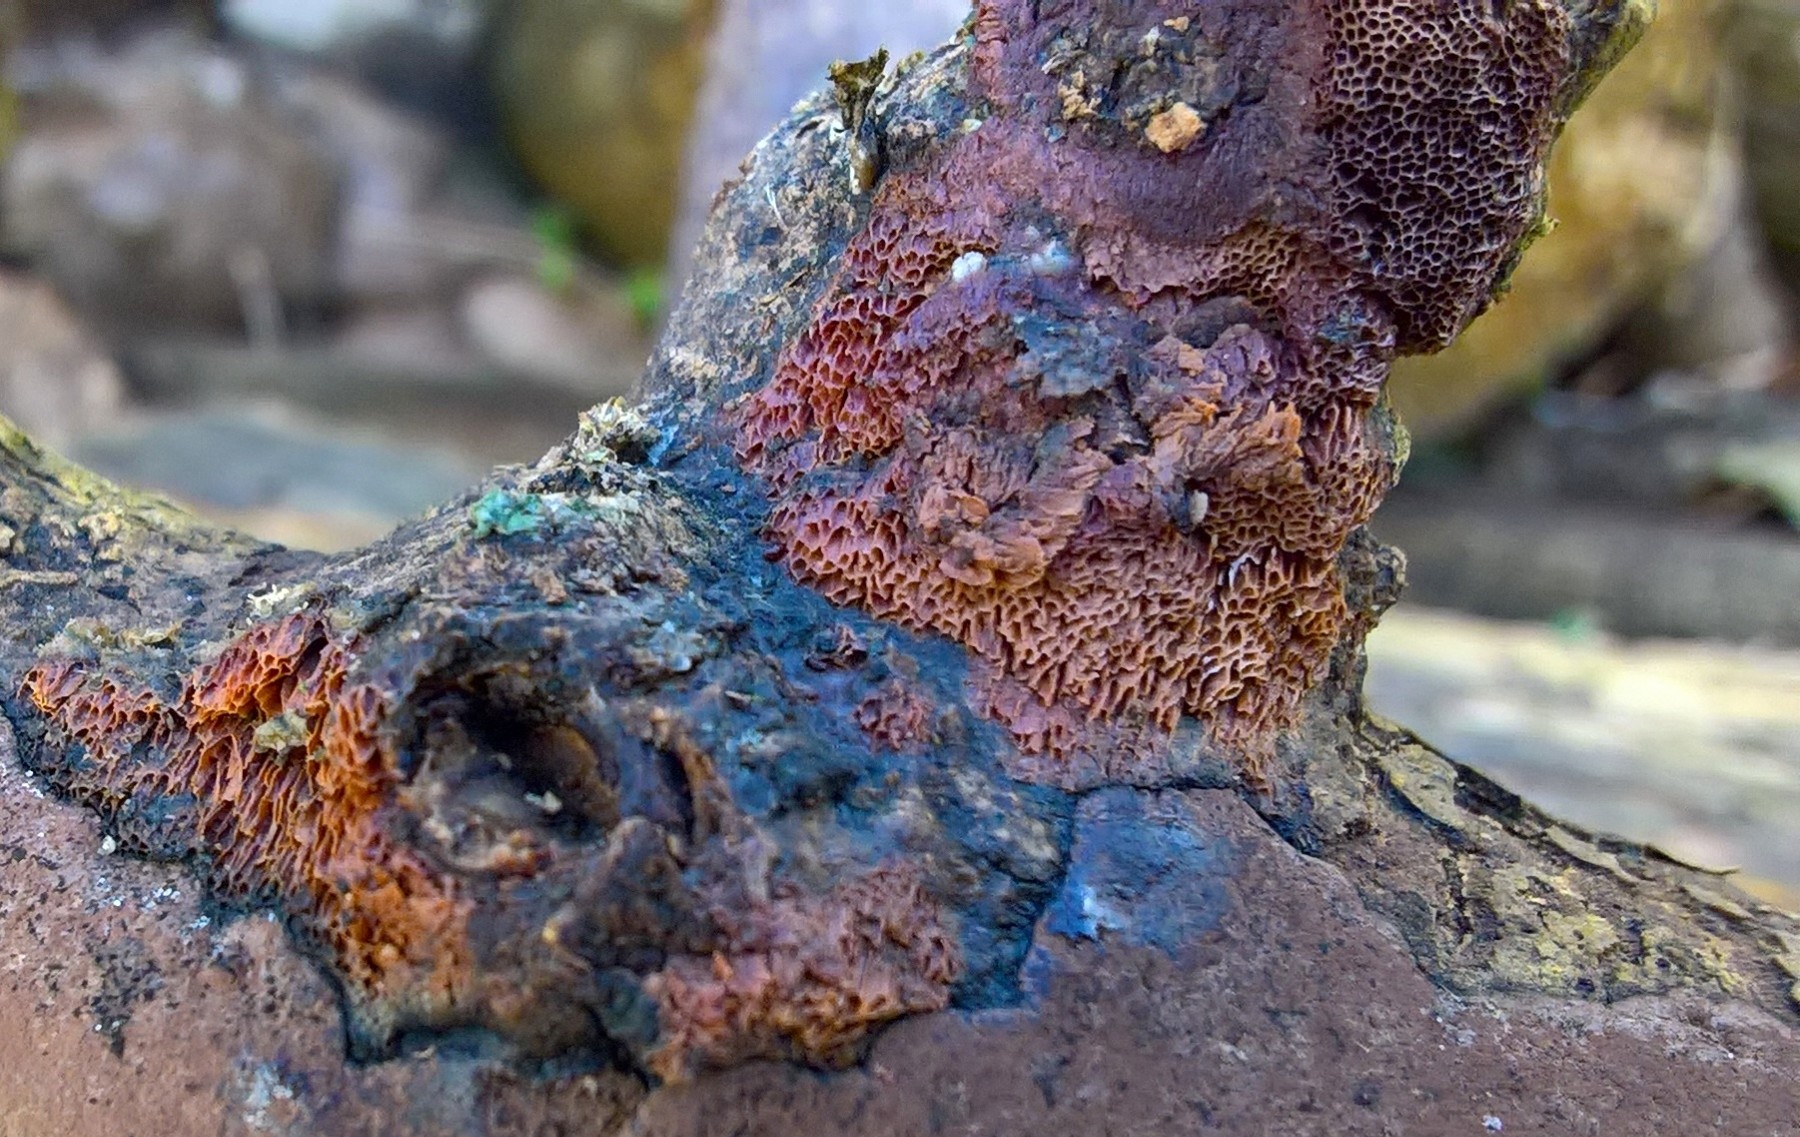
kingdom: Fungi
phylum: Basidiomycota
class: Agaricomycetes
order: Polyporales
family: Irpicaceae
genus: Ceriporia
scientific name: Ceriporia
